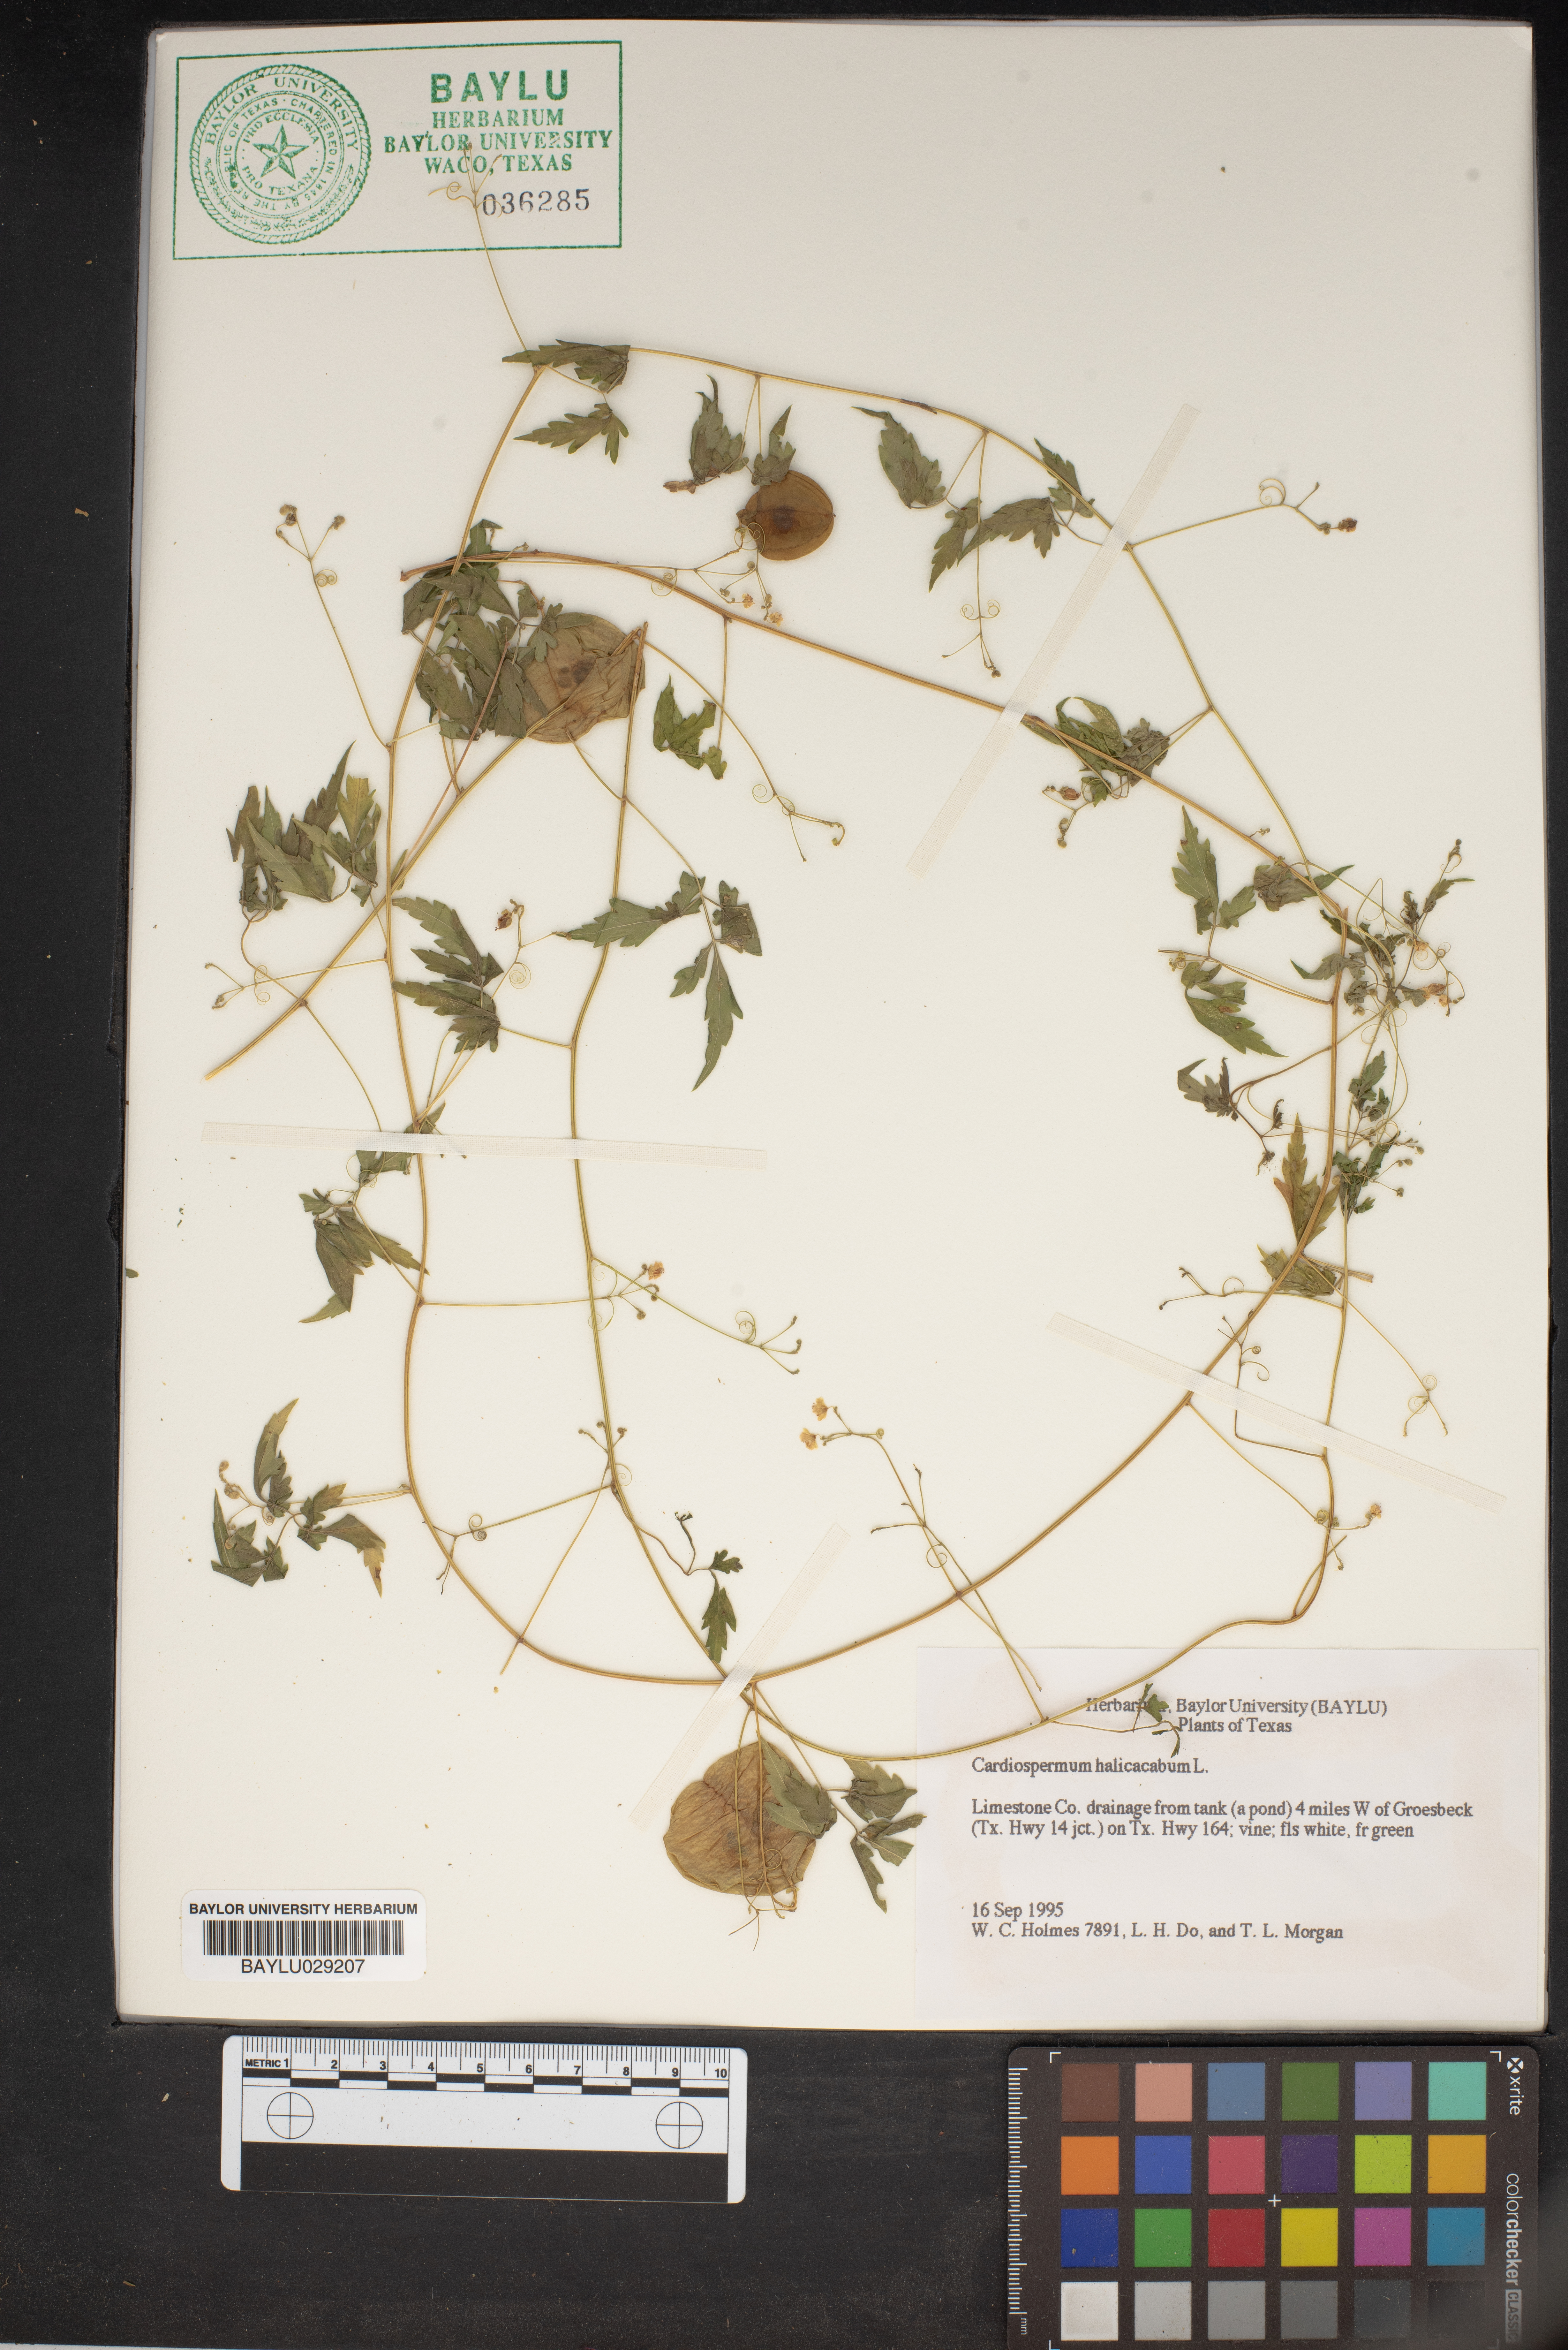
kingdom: Plantae
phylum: Tracheophyta
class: Magnoliopsida
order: Sapindales
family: Sapindaceae
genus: Cardiospermum
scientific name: Cardiospermum halicacabum
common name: Balloon vine
